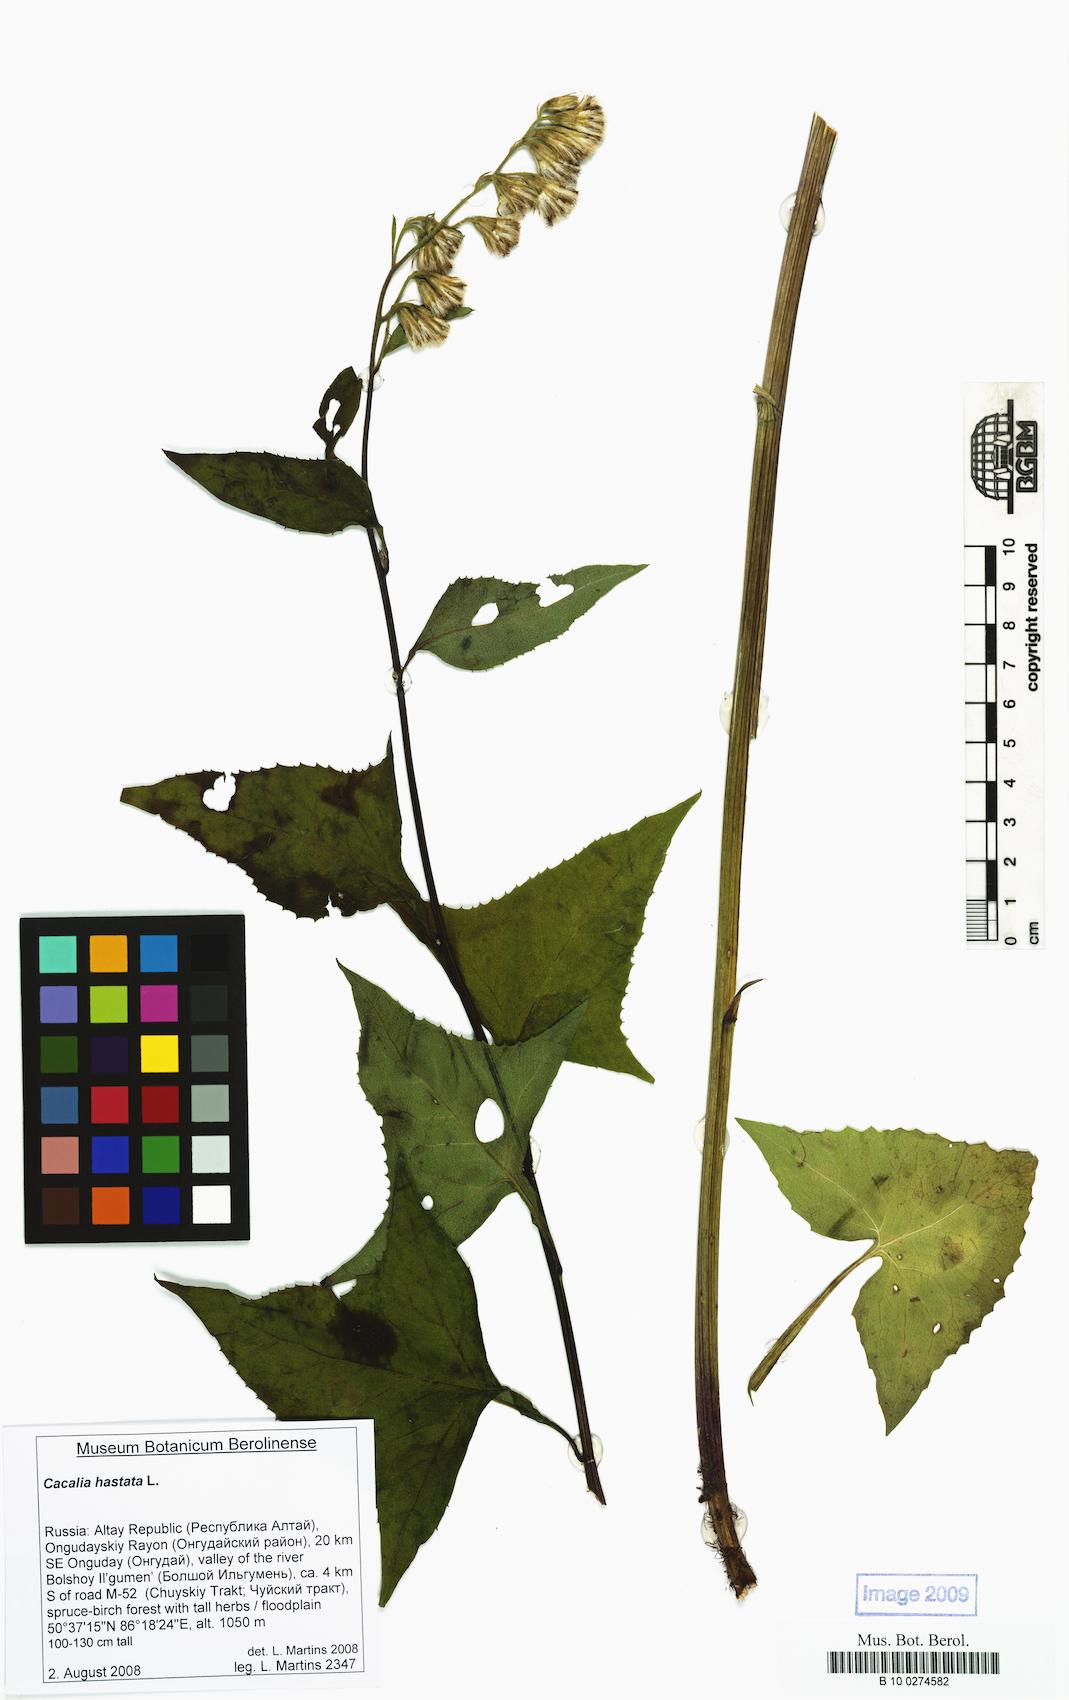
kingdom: Plantae
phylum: Tracheophyta
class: Magnoliopsida
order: Asterales
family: Asteraceae
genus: Parasenecio
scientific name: Parasenecio hastatus
